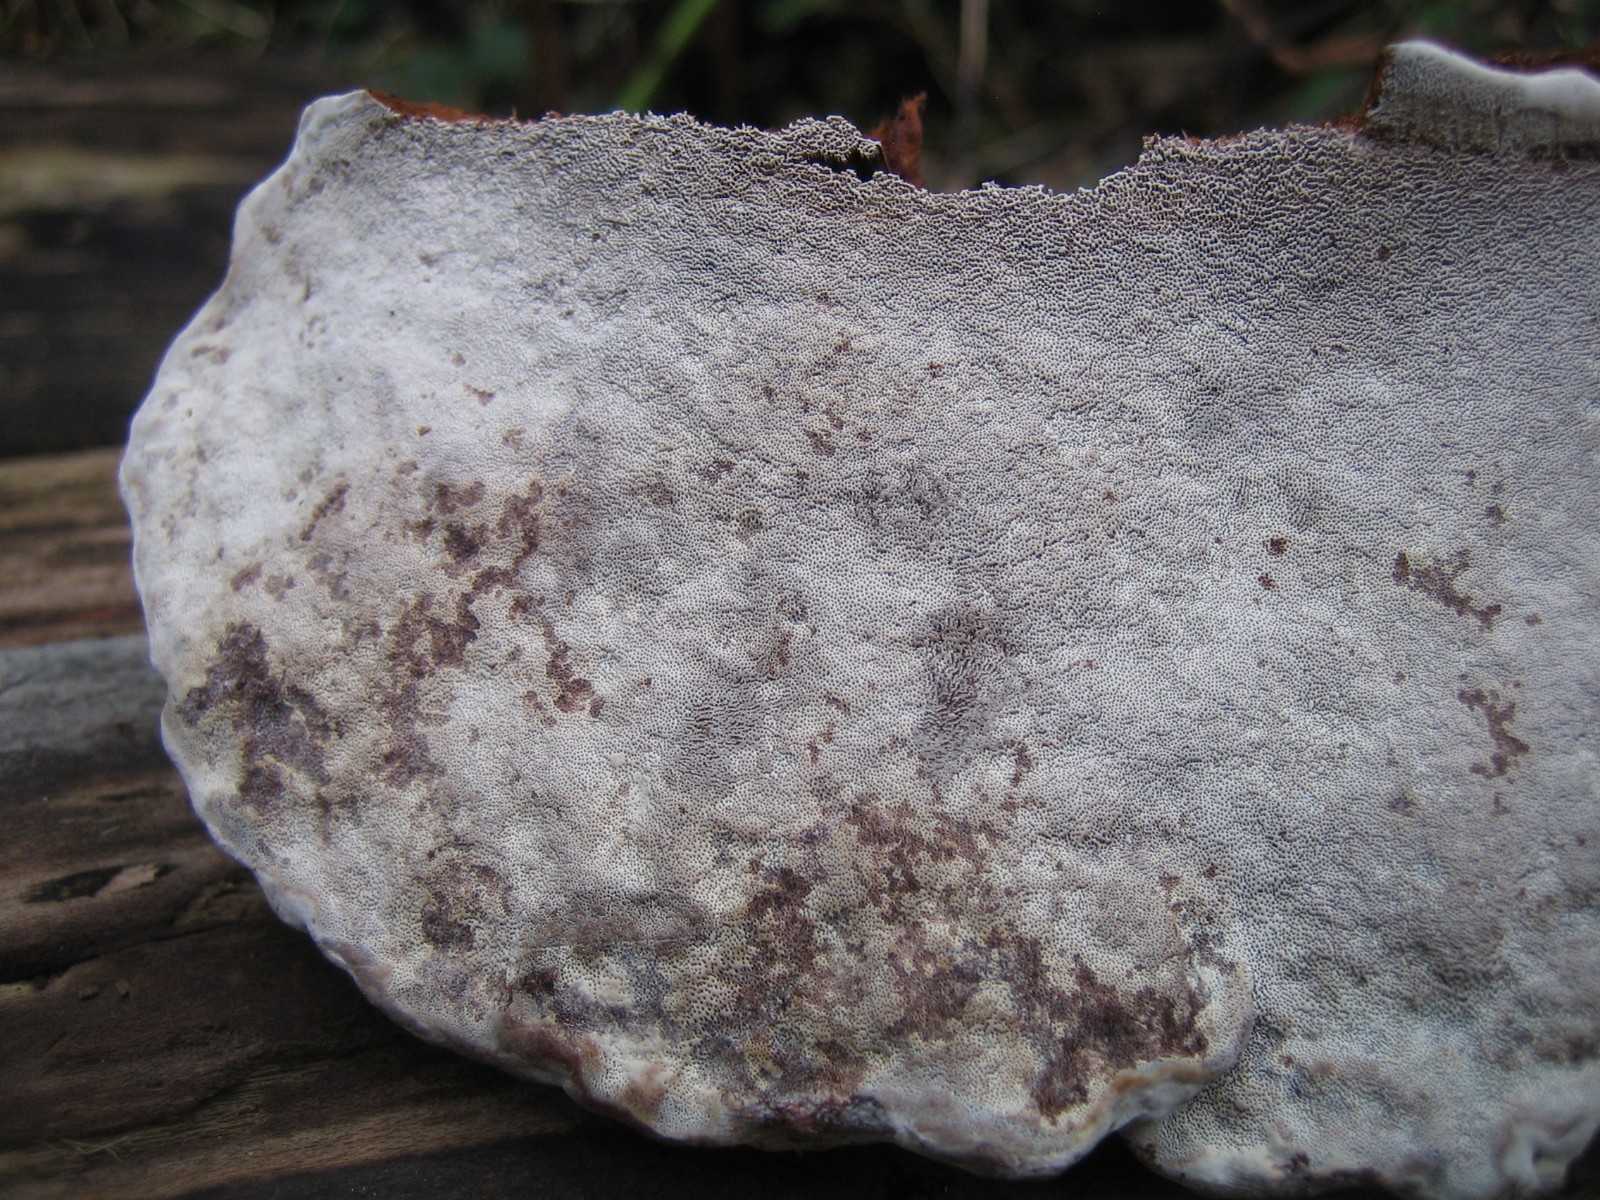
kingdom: Fungi
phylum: Basidiomycota
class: Agaricomycetes
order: Polyporales
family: Polyporaceae
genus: Ganoderma
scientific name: Ganoderma applanatum
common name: flad lakporesvamp
